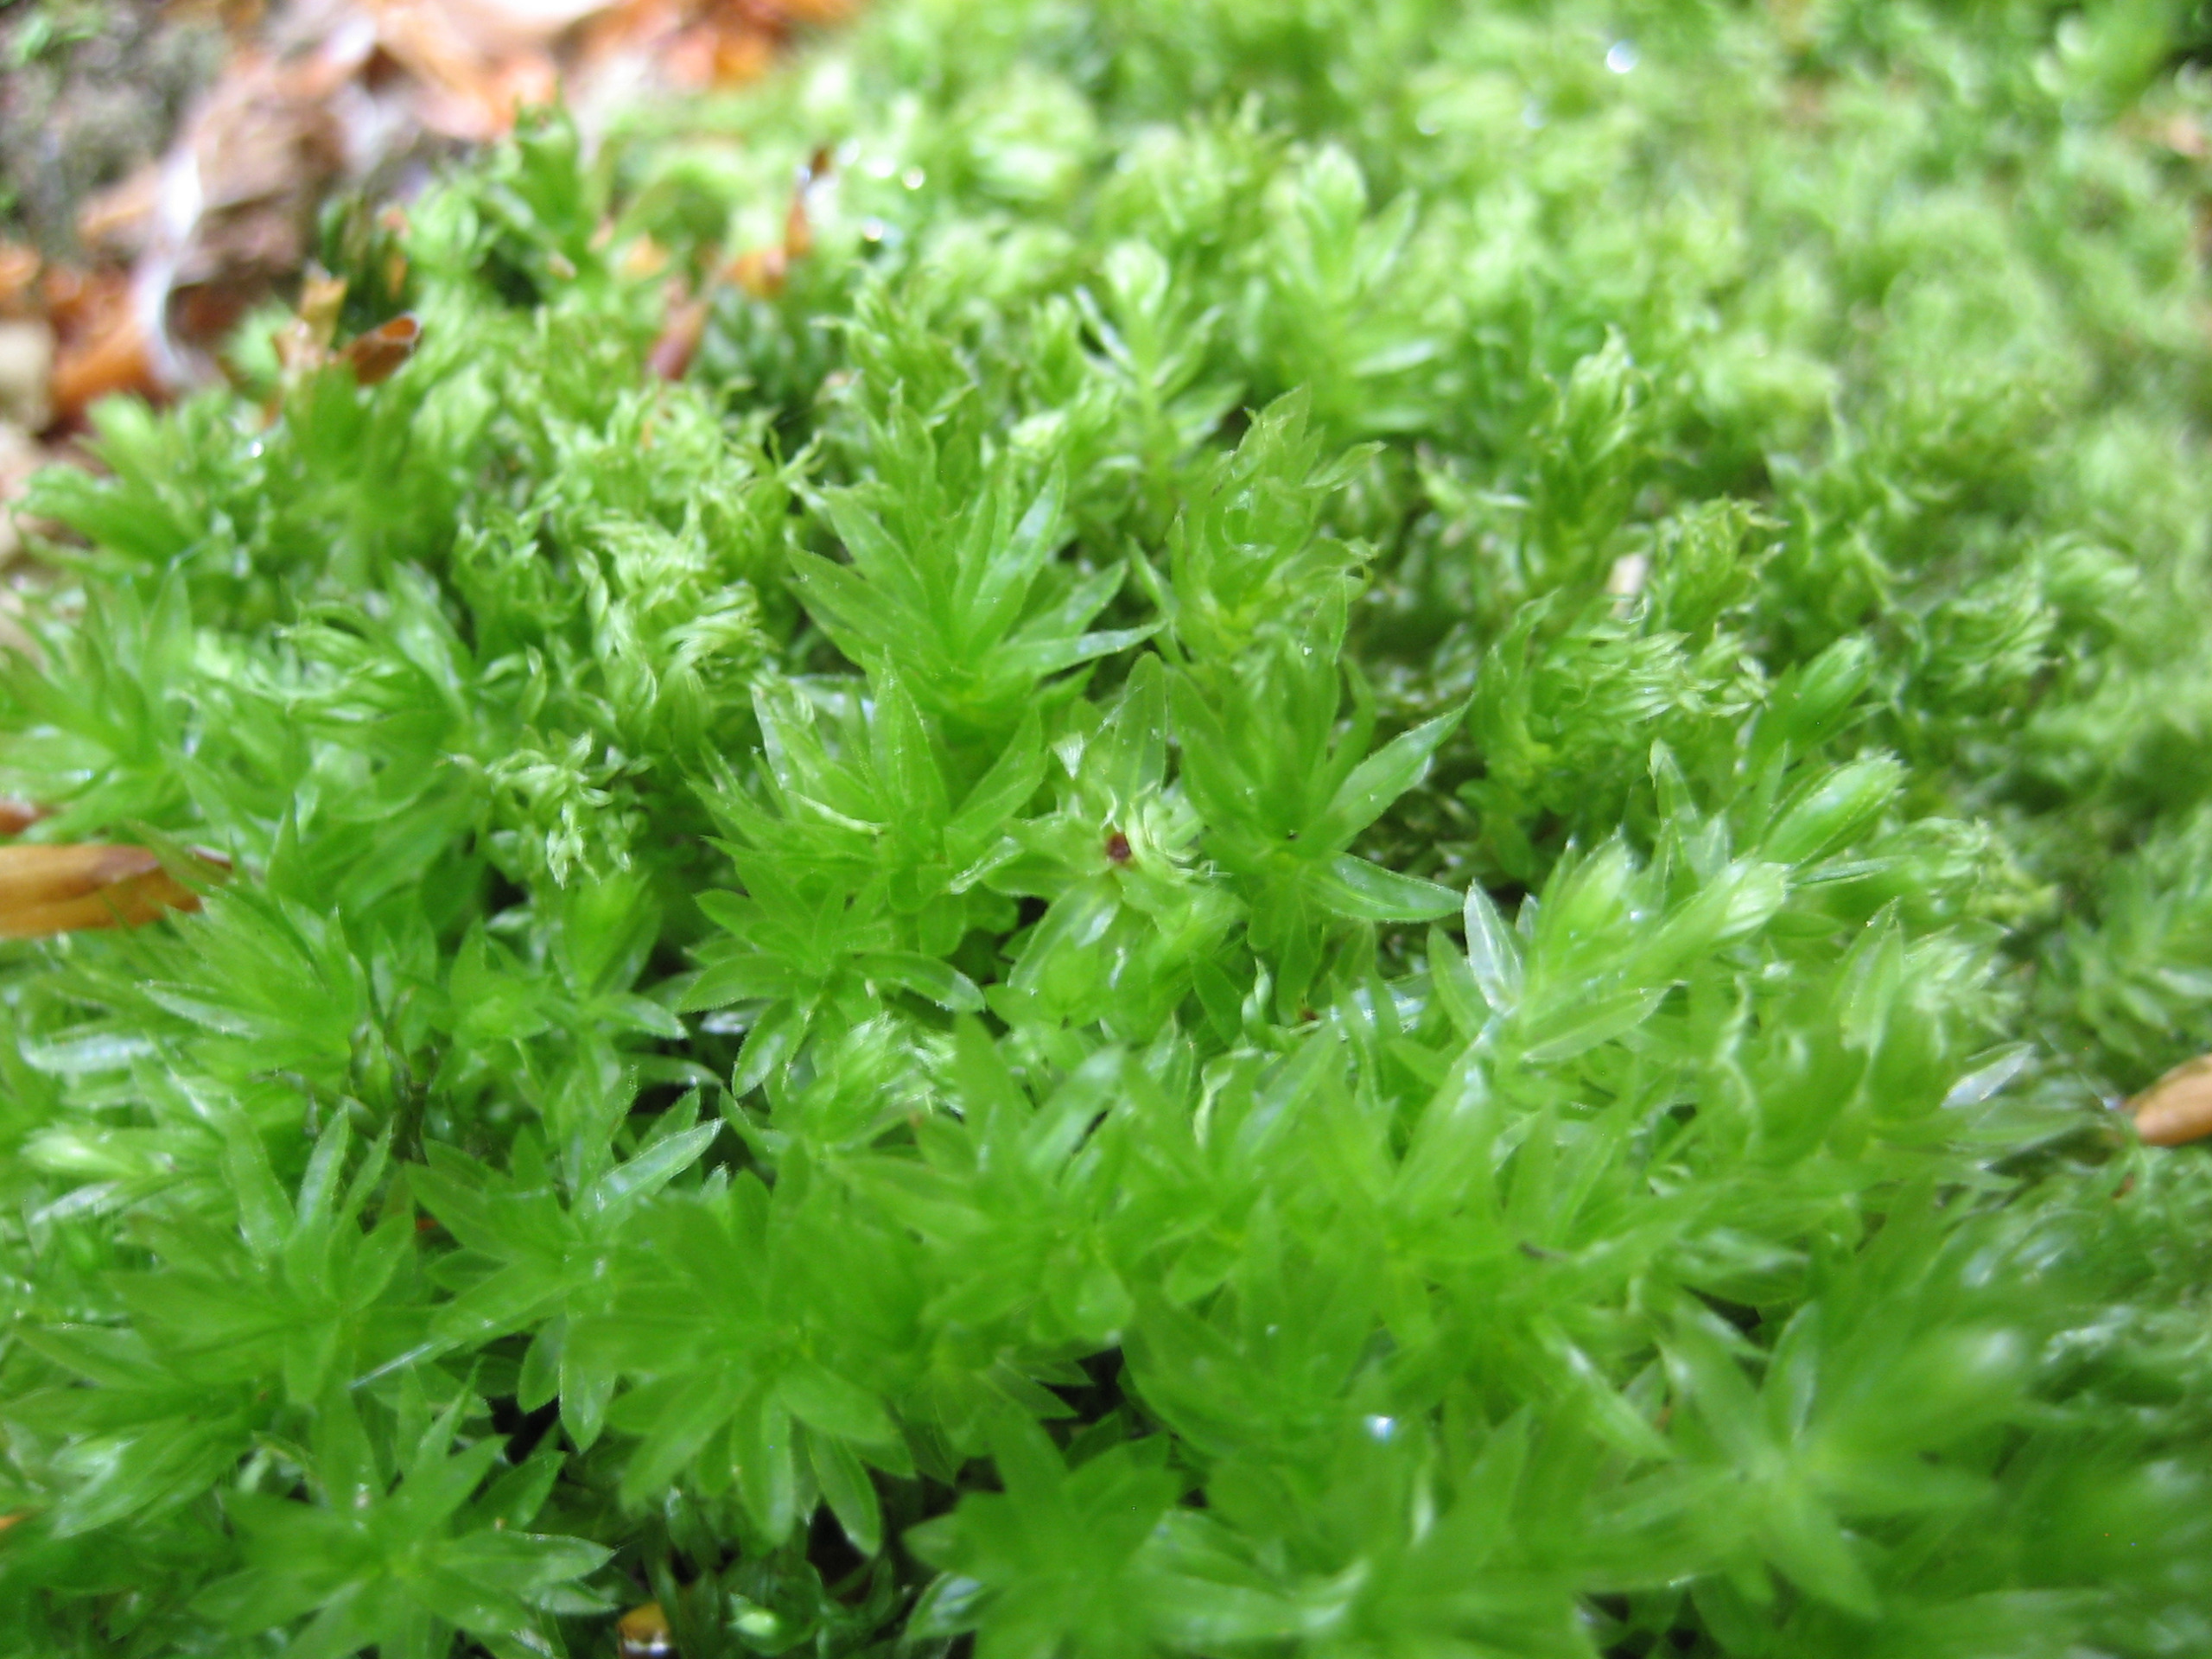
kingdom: Plantae
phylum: Bryophyta
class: Bryopsida
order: Bryales
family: Mniaceae
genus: Mnium
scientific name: Mnium hornum
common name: Brunfiltet stjernemos
